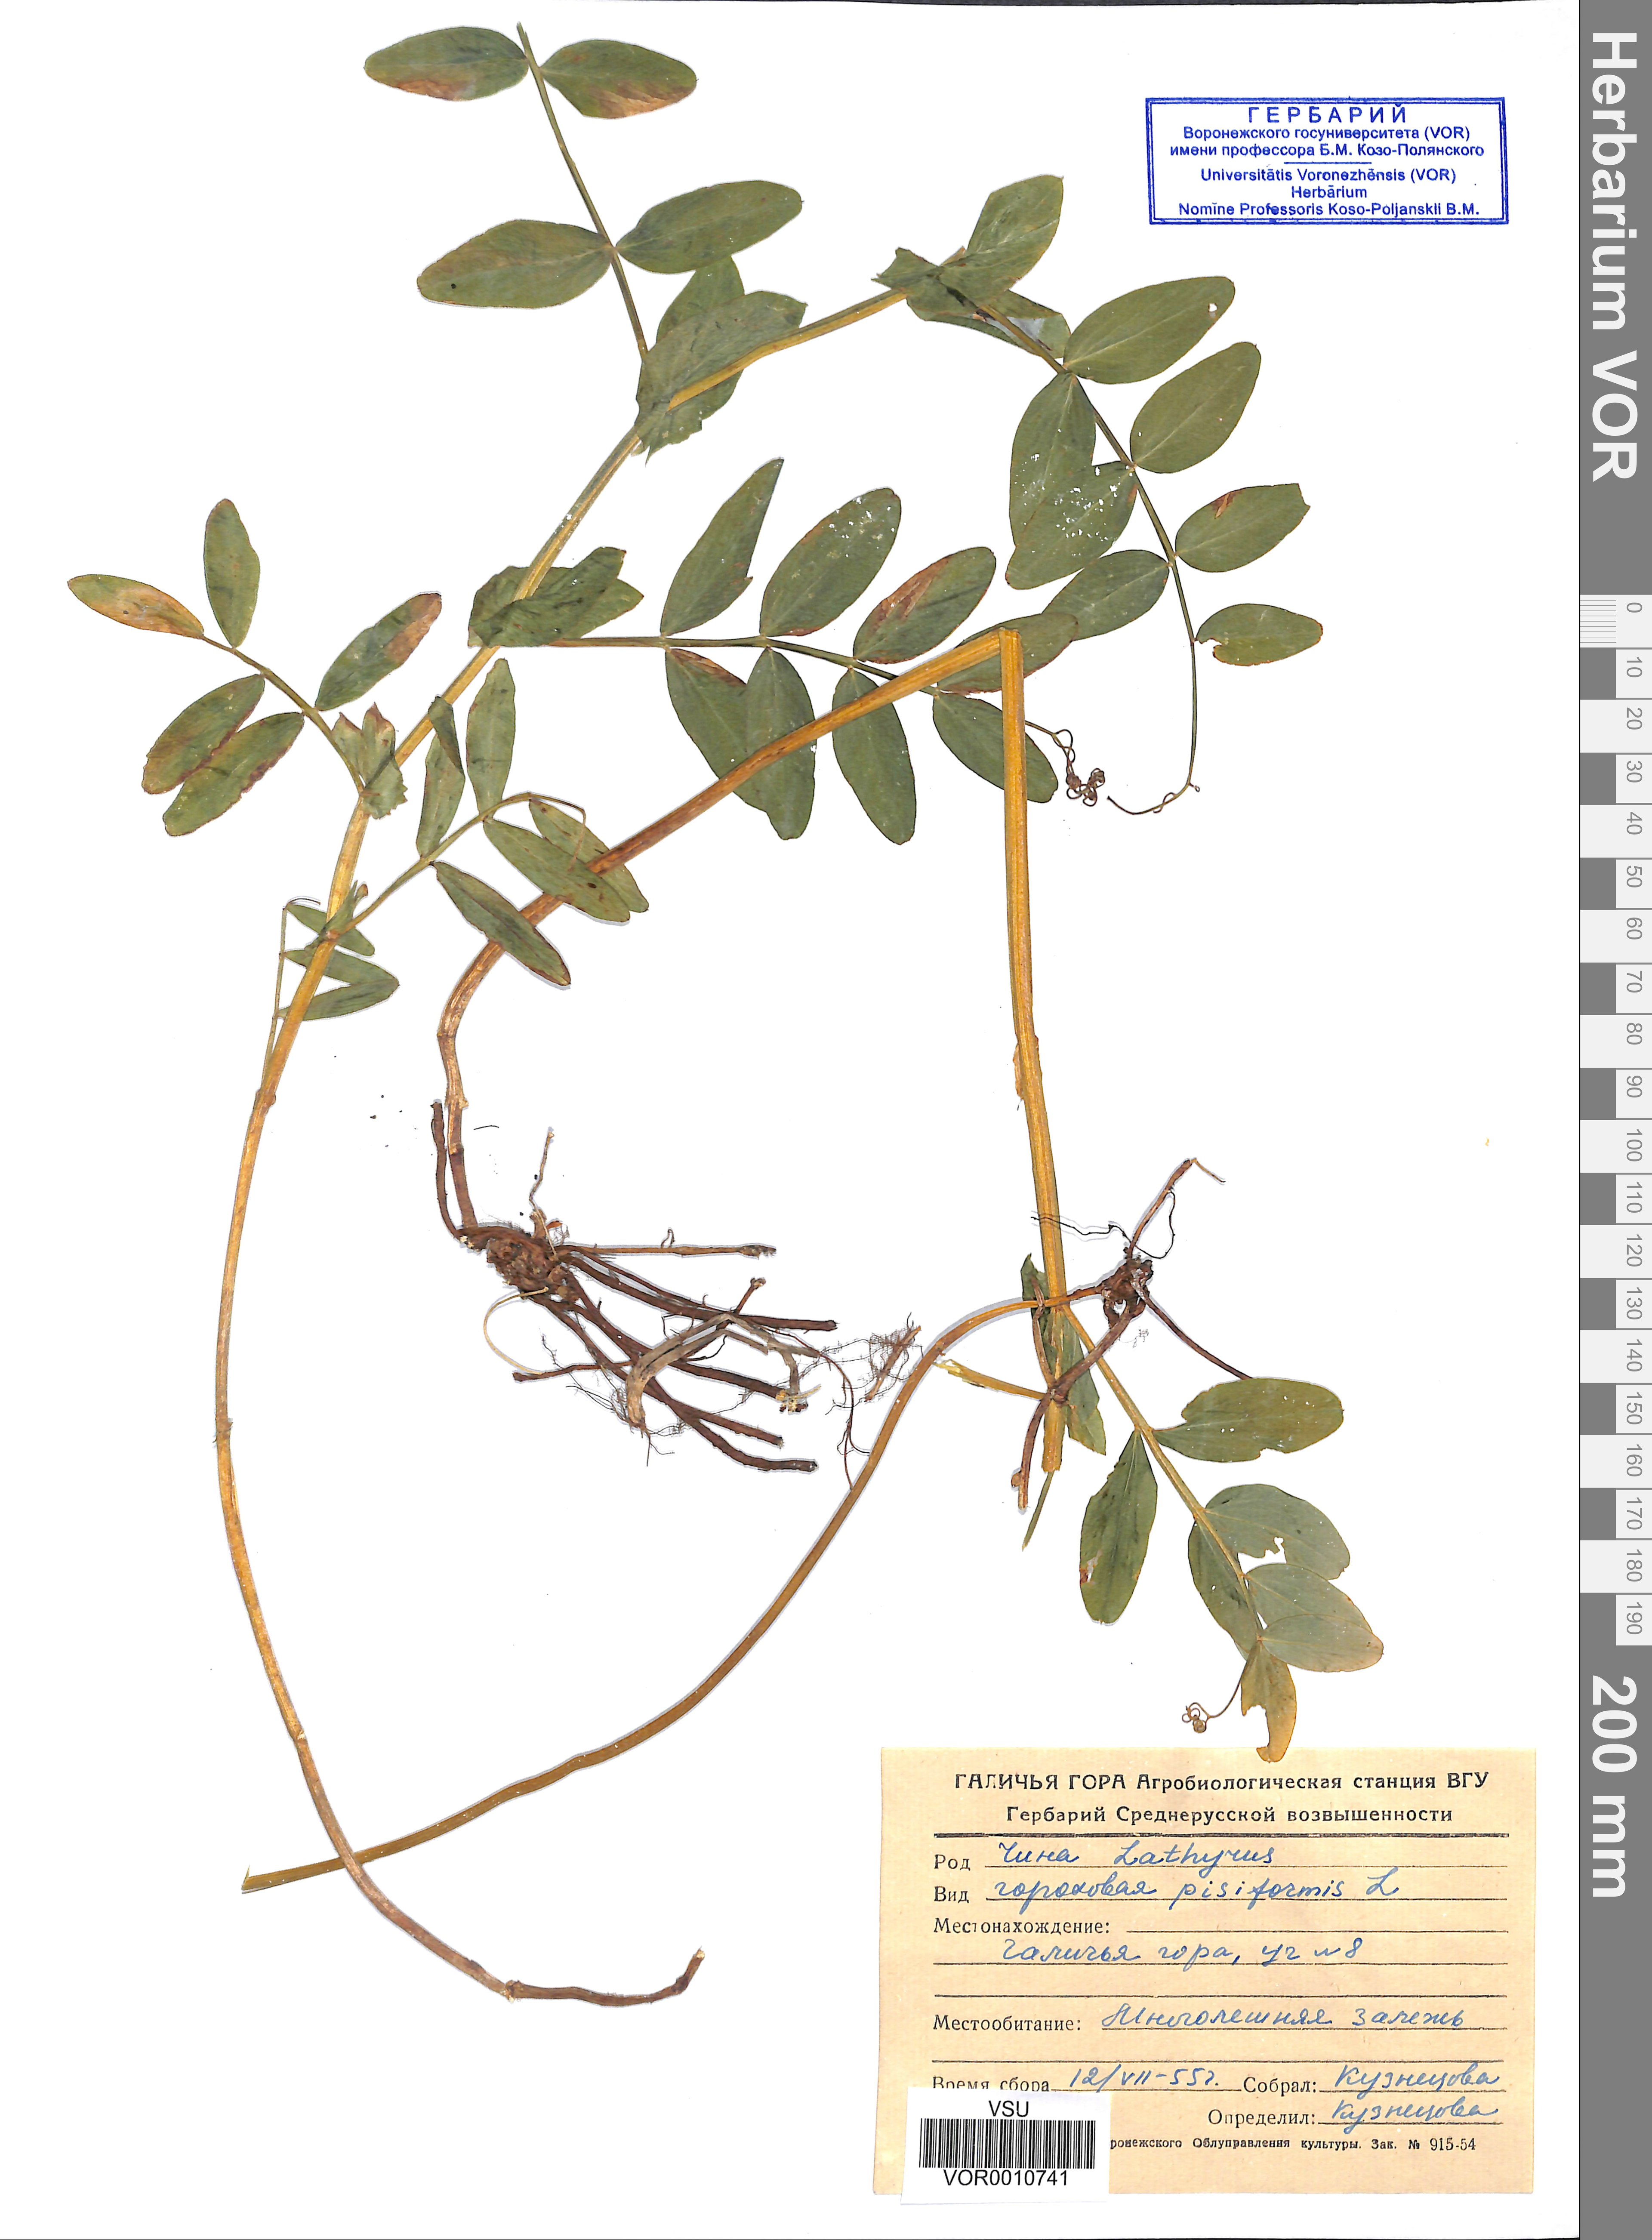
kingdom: Plantae
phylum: Tracheophyta
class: Magnoliopsida
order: Fabales
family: Fabaceae
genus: Lathyrus
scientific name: Lathyrus pisiformis
